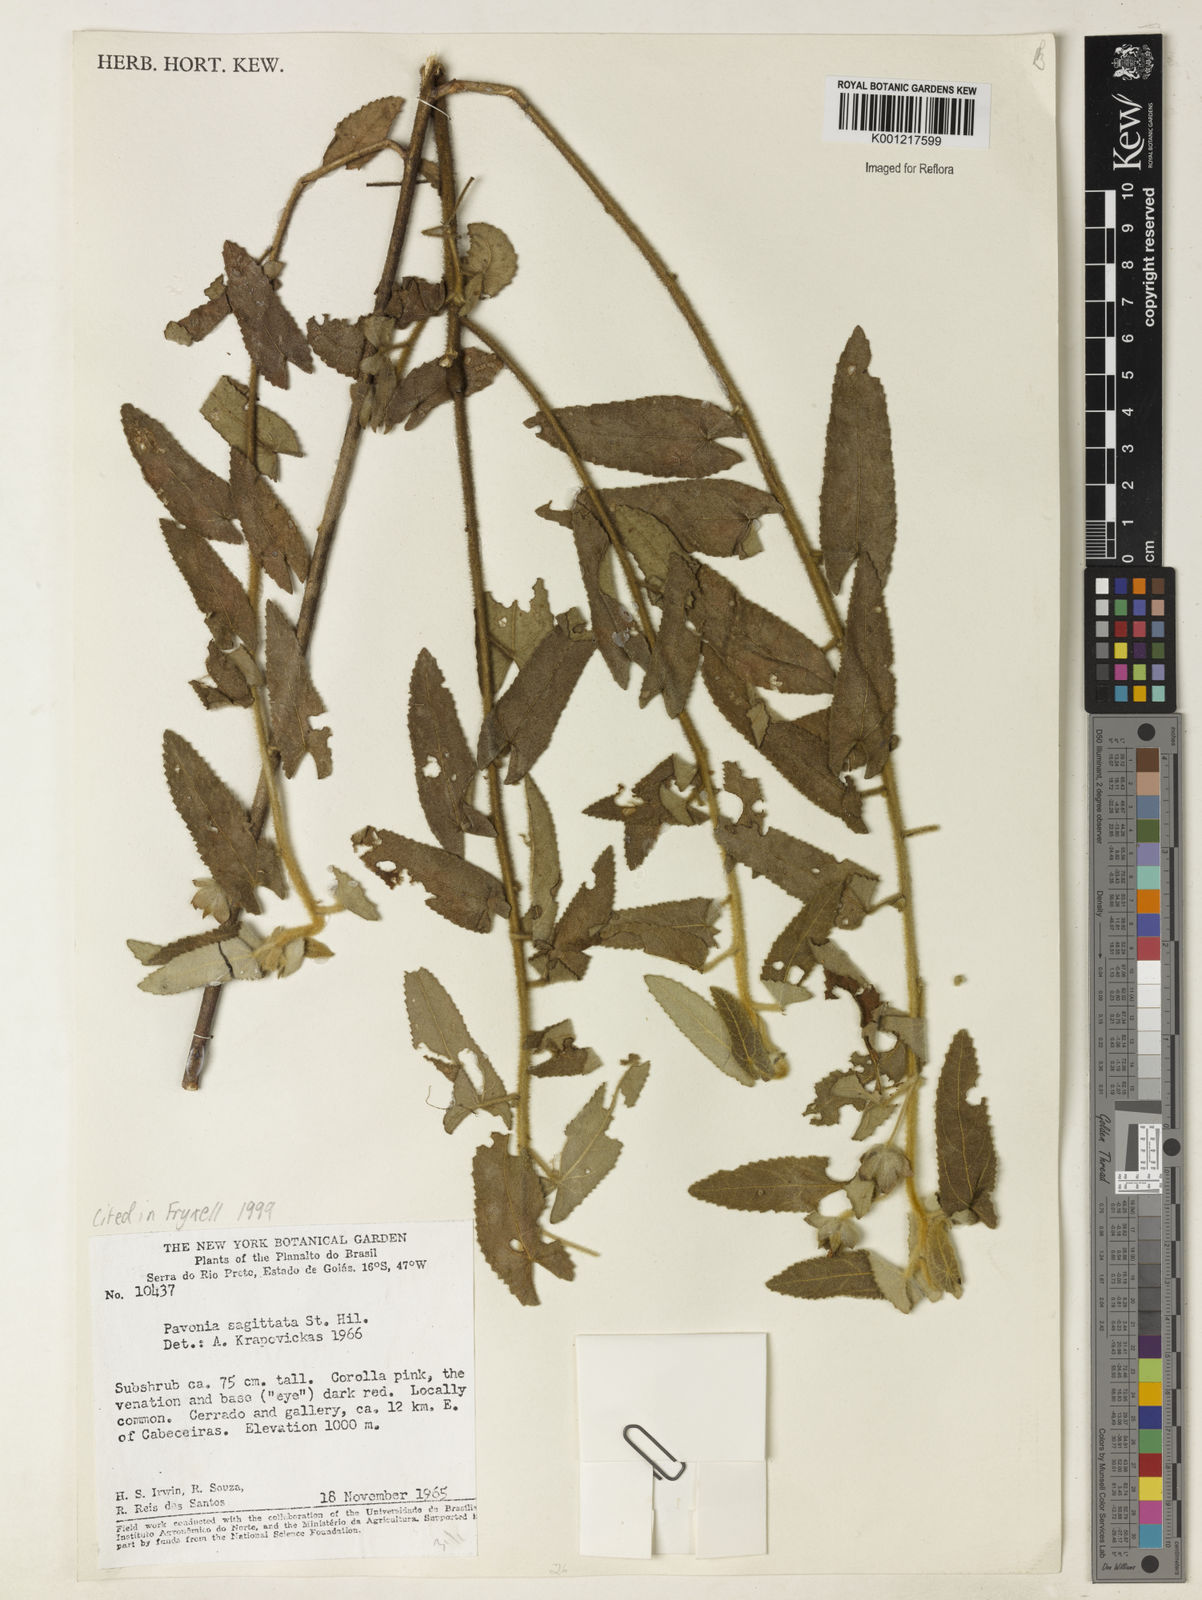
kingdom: Plantae
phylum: Tracheophyta
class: Magnoliopsida
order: Malvales
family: Malvaceae
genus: Pavonia
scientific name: Pavonia
